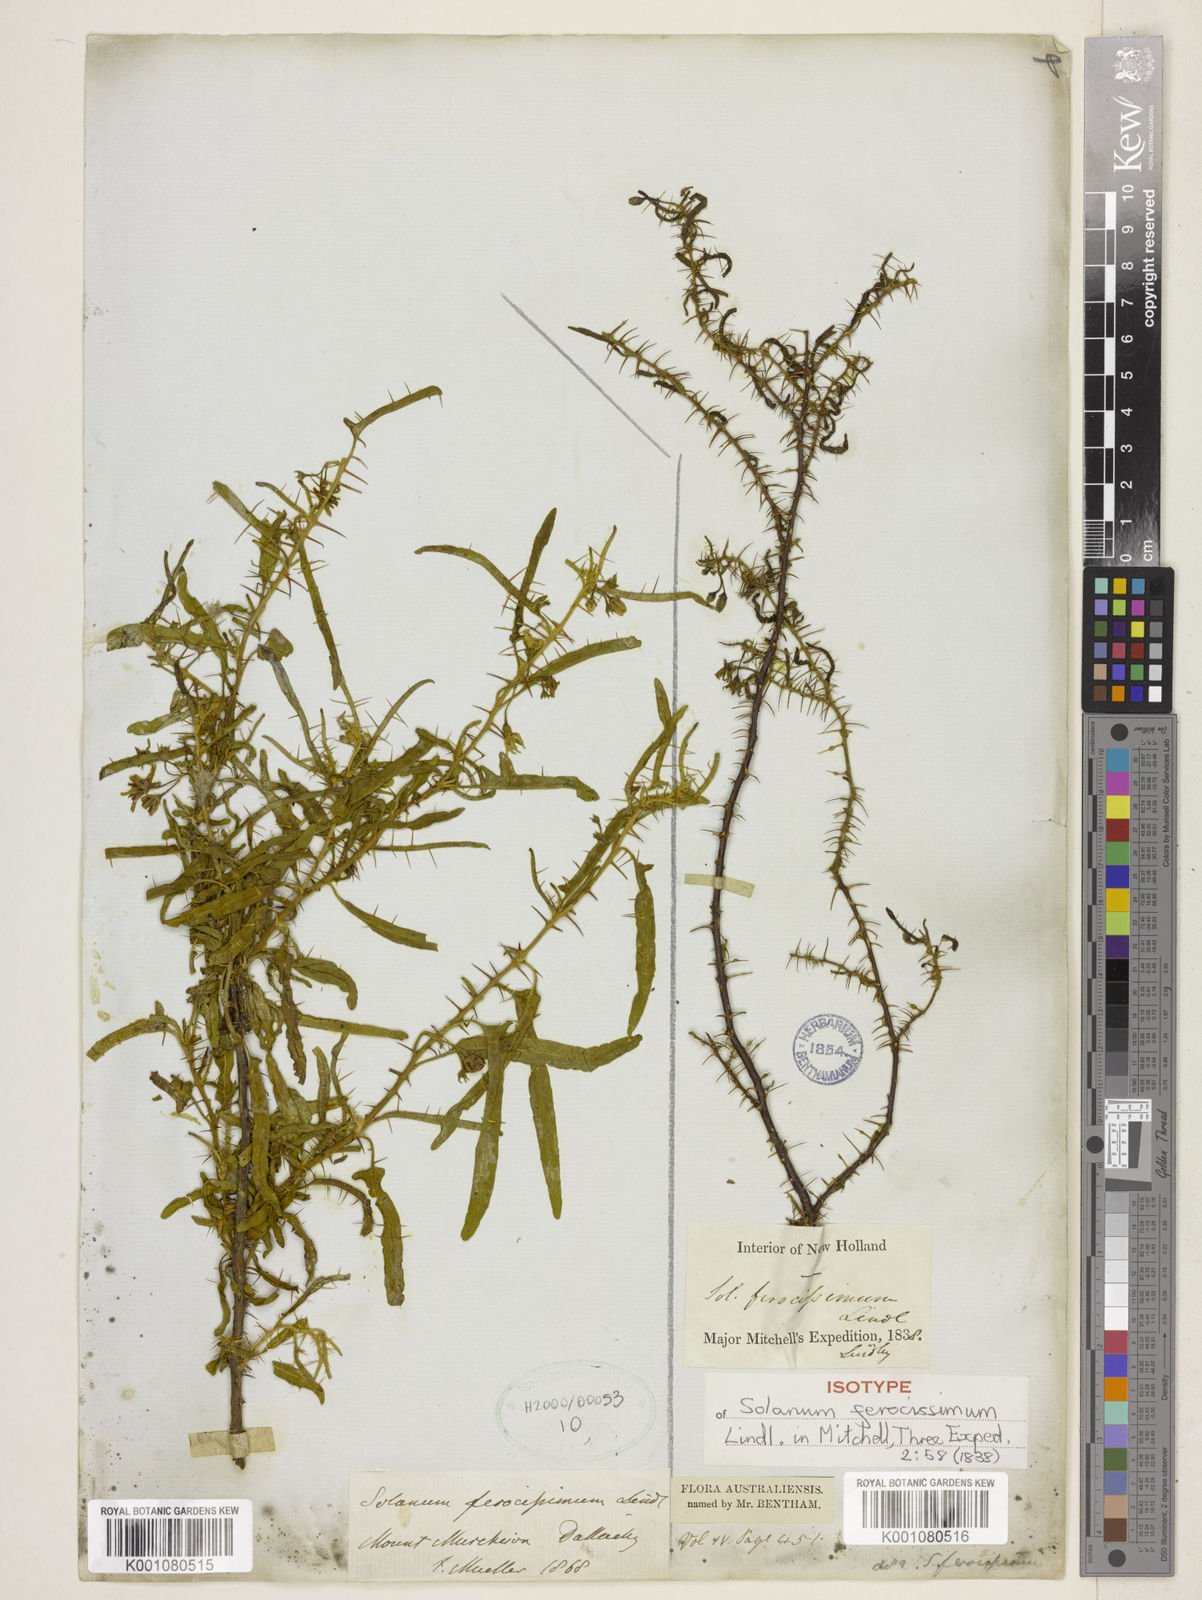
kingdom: Plantae
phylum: Tracheophyta
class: Magnoliopsida
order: Solanales
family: Solanaceae
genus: Solanum
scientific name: Solanum ferocissimum
